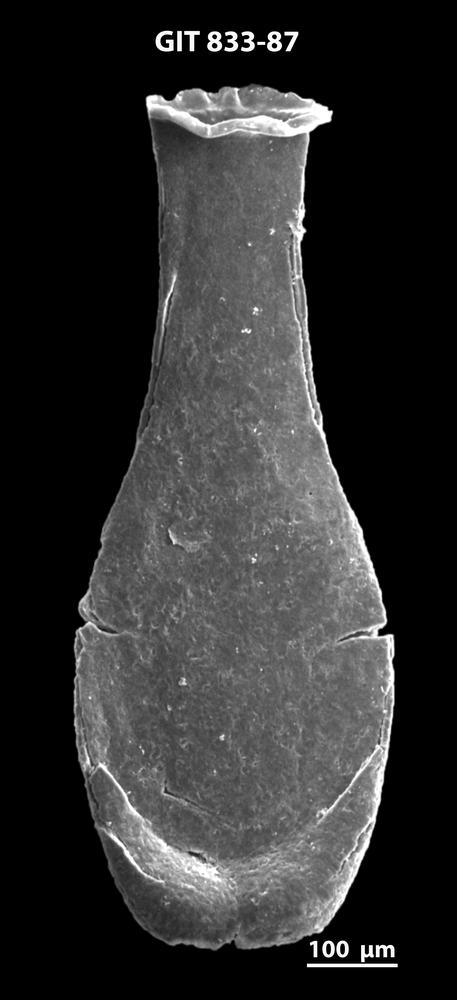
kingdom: Animalia
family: Lagenochitinidae
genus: Lagenochitina
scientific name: Lagenochitina megaesthonica
